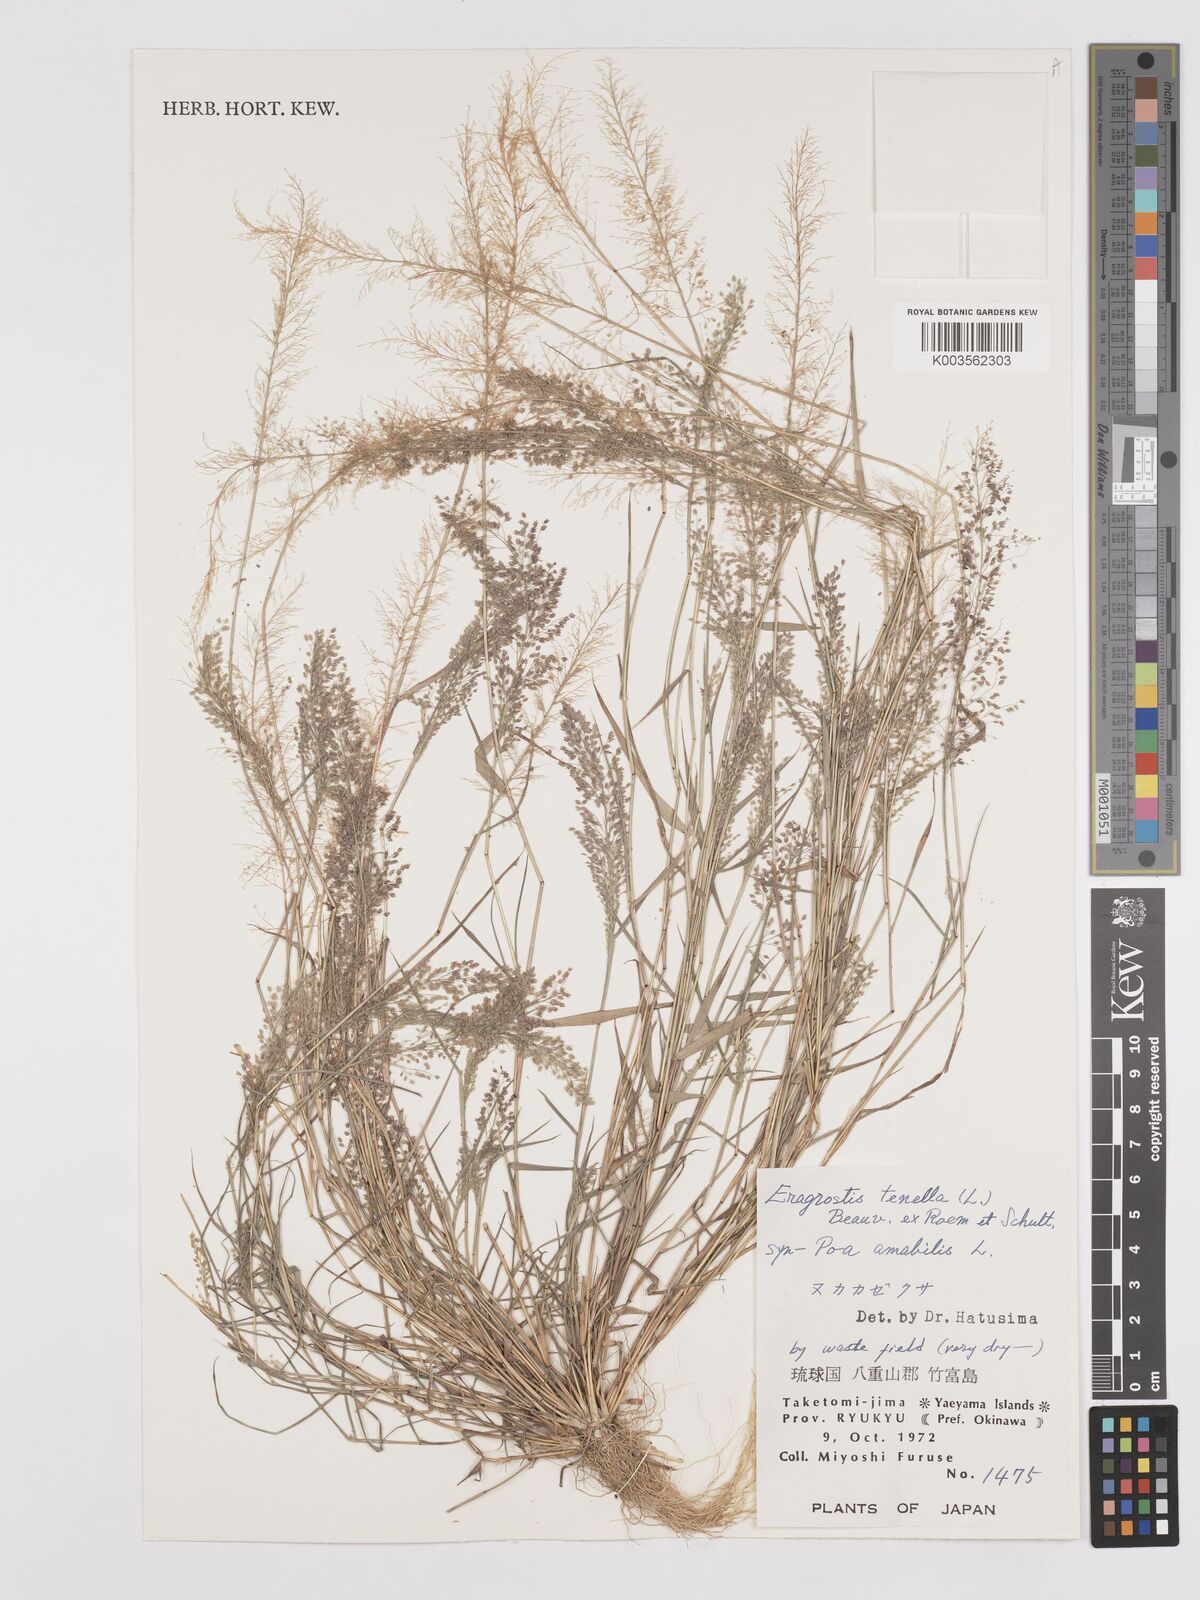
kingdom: Plantae
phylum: Tracheophyta
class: Liliopsida
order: Poales
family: Poaceae
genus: Eragrostis
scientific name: Eragrostis tenella
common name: Japanese lovegrass
